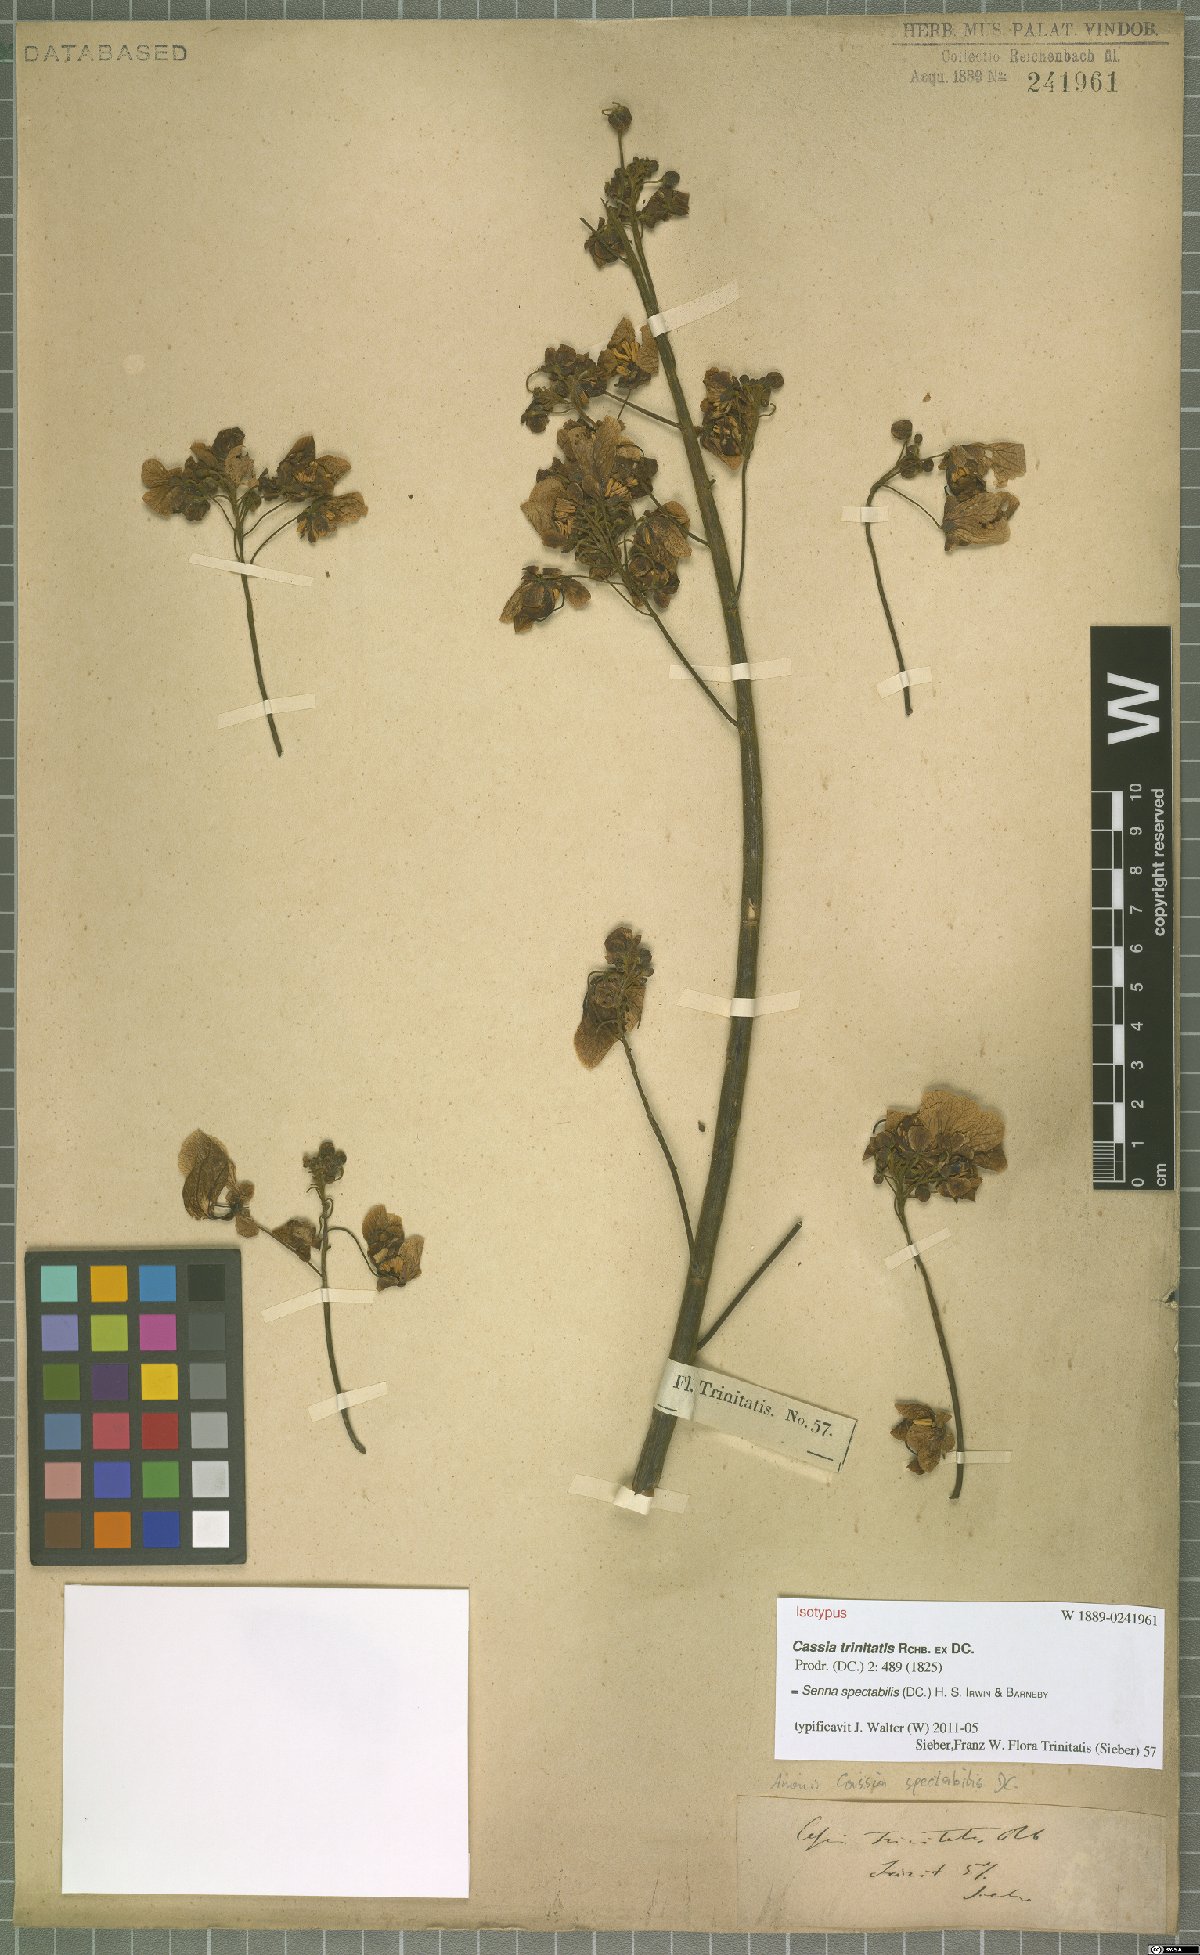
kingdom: Plantae
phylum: Tracheophyta
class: Magnoliopsida
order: Fabales
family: Fabaceae
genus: Senna
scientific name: Senna spectabilis
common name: Casia amarilla
